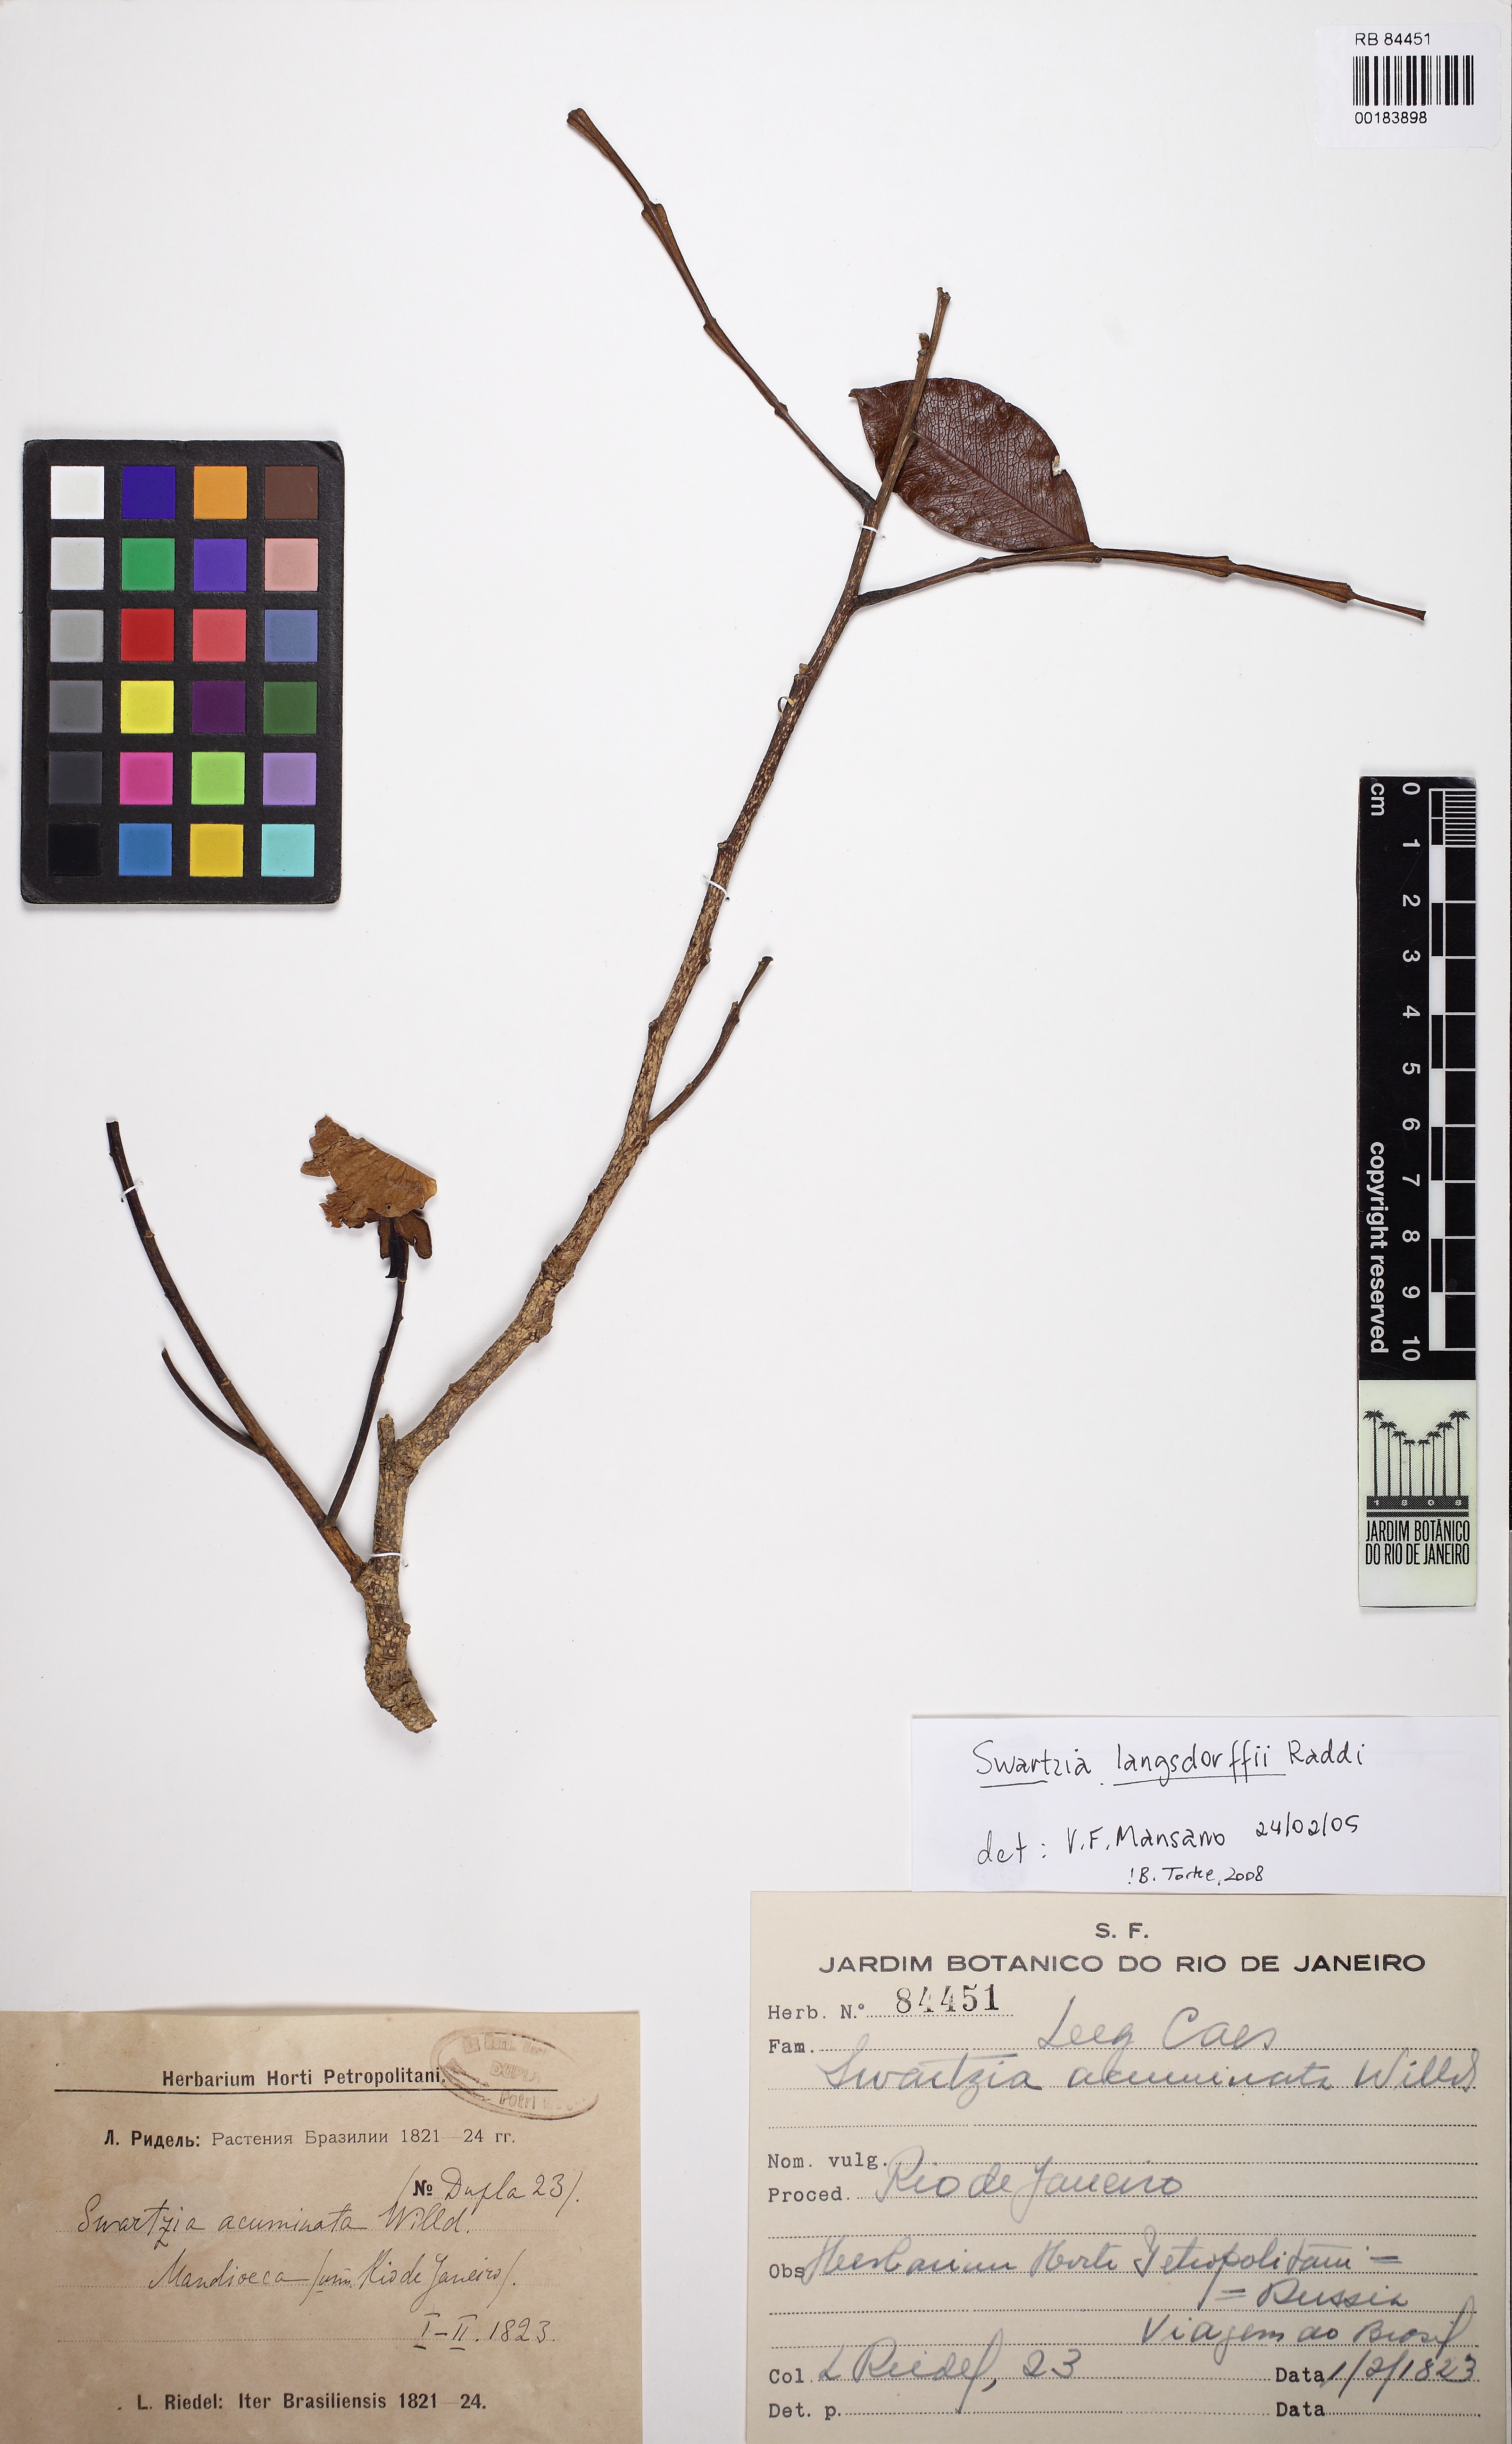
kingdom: Plantae
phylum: Tracheophyta
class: Magnoliopsida
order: Fabales
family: Fabaceae
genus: Swartzia
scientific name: Swartzia langsdorffii
